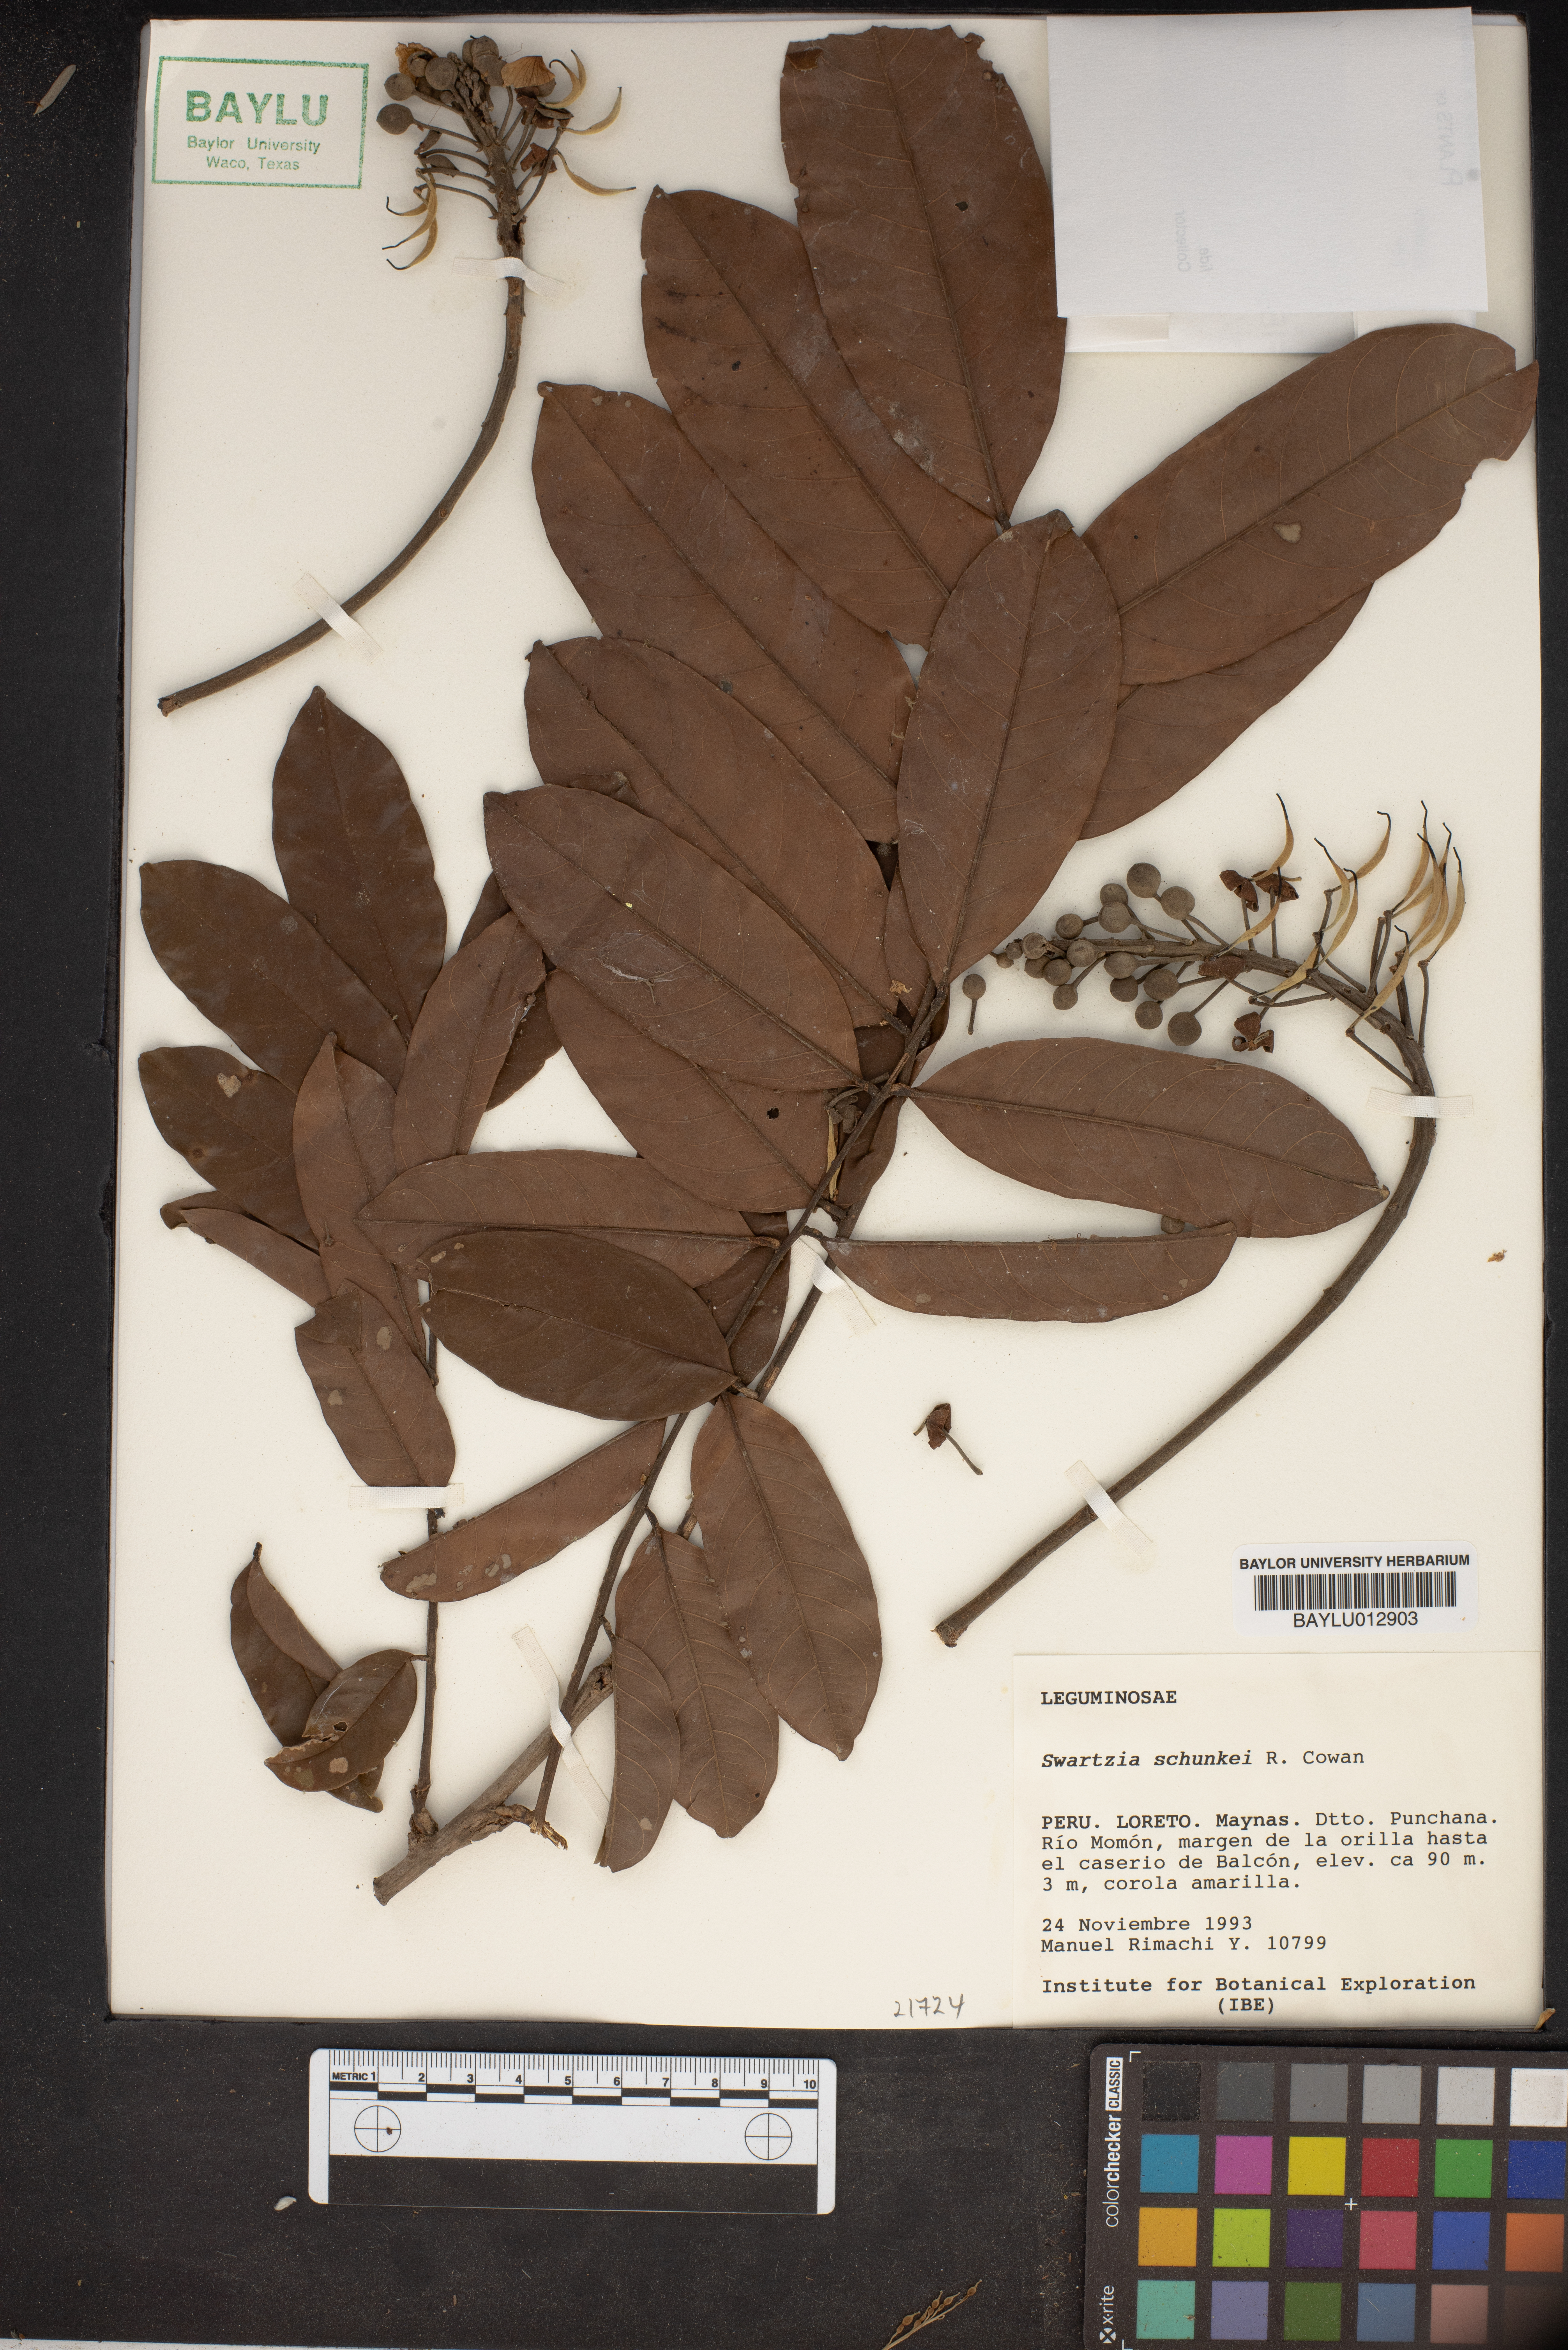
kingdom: Plantae
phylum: Tracheophyta
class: Magnoliopsida
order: Fabales
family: Fabaceae
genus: Swartzia
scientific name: Swartzia schunkei
